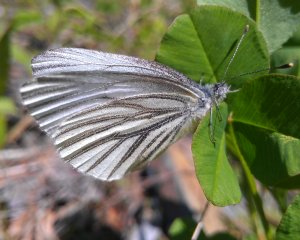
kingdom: Animalia
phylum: Arthropoda
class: Insecta
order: Lepidoptera
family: Pieridae
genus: Pieris
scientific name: Pieris oleracea
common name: Mustard White
